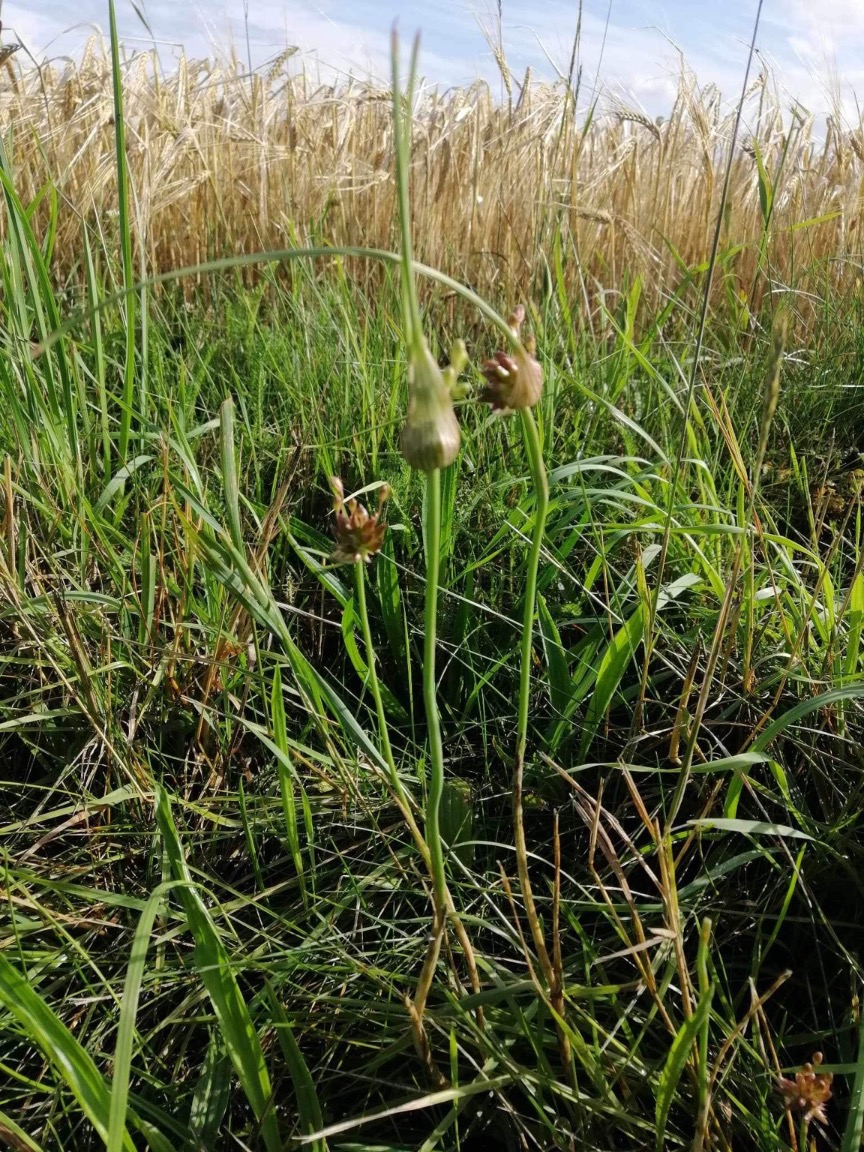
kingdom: Plantae
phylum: Tracheophyta
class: Liliopsida
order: Asparagales
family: Amaryllidaceae
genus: Allium
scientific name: Allium oleraceum
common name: Vild løg
